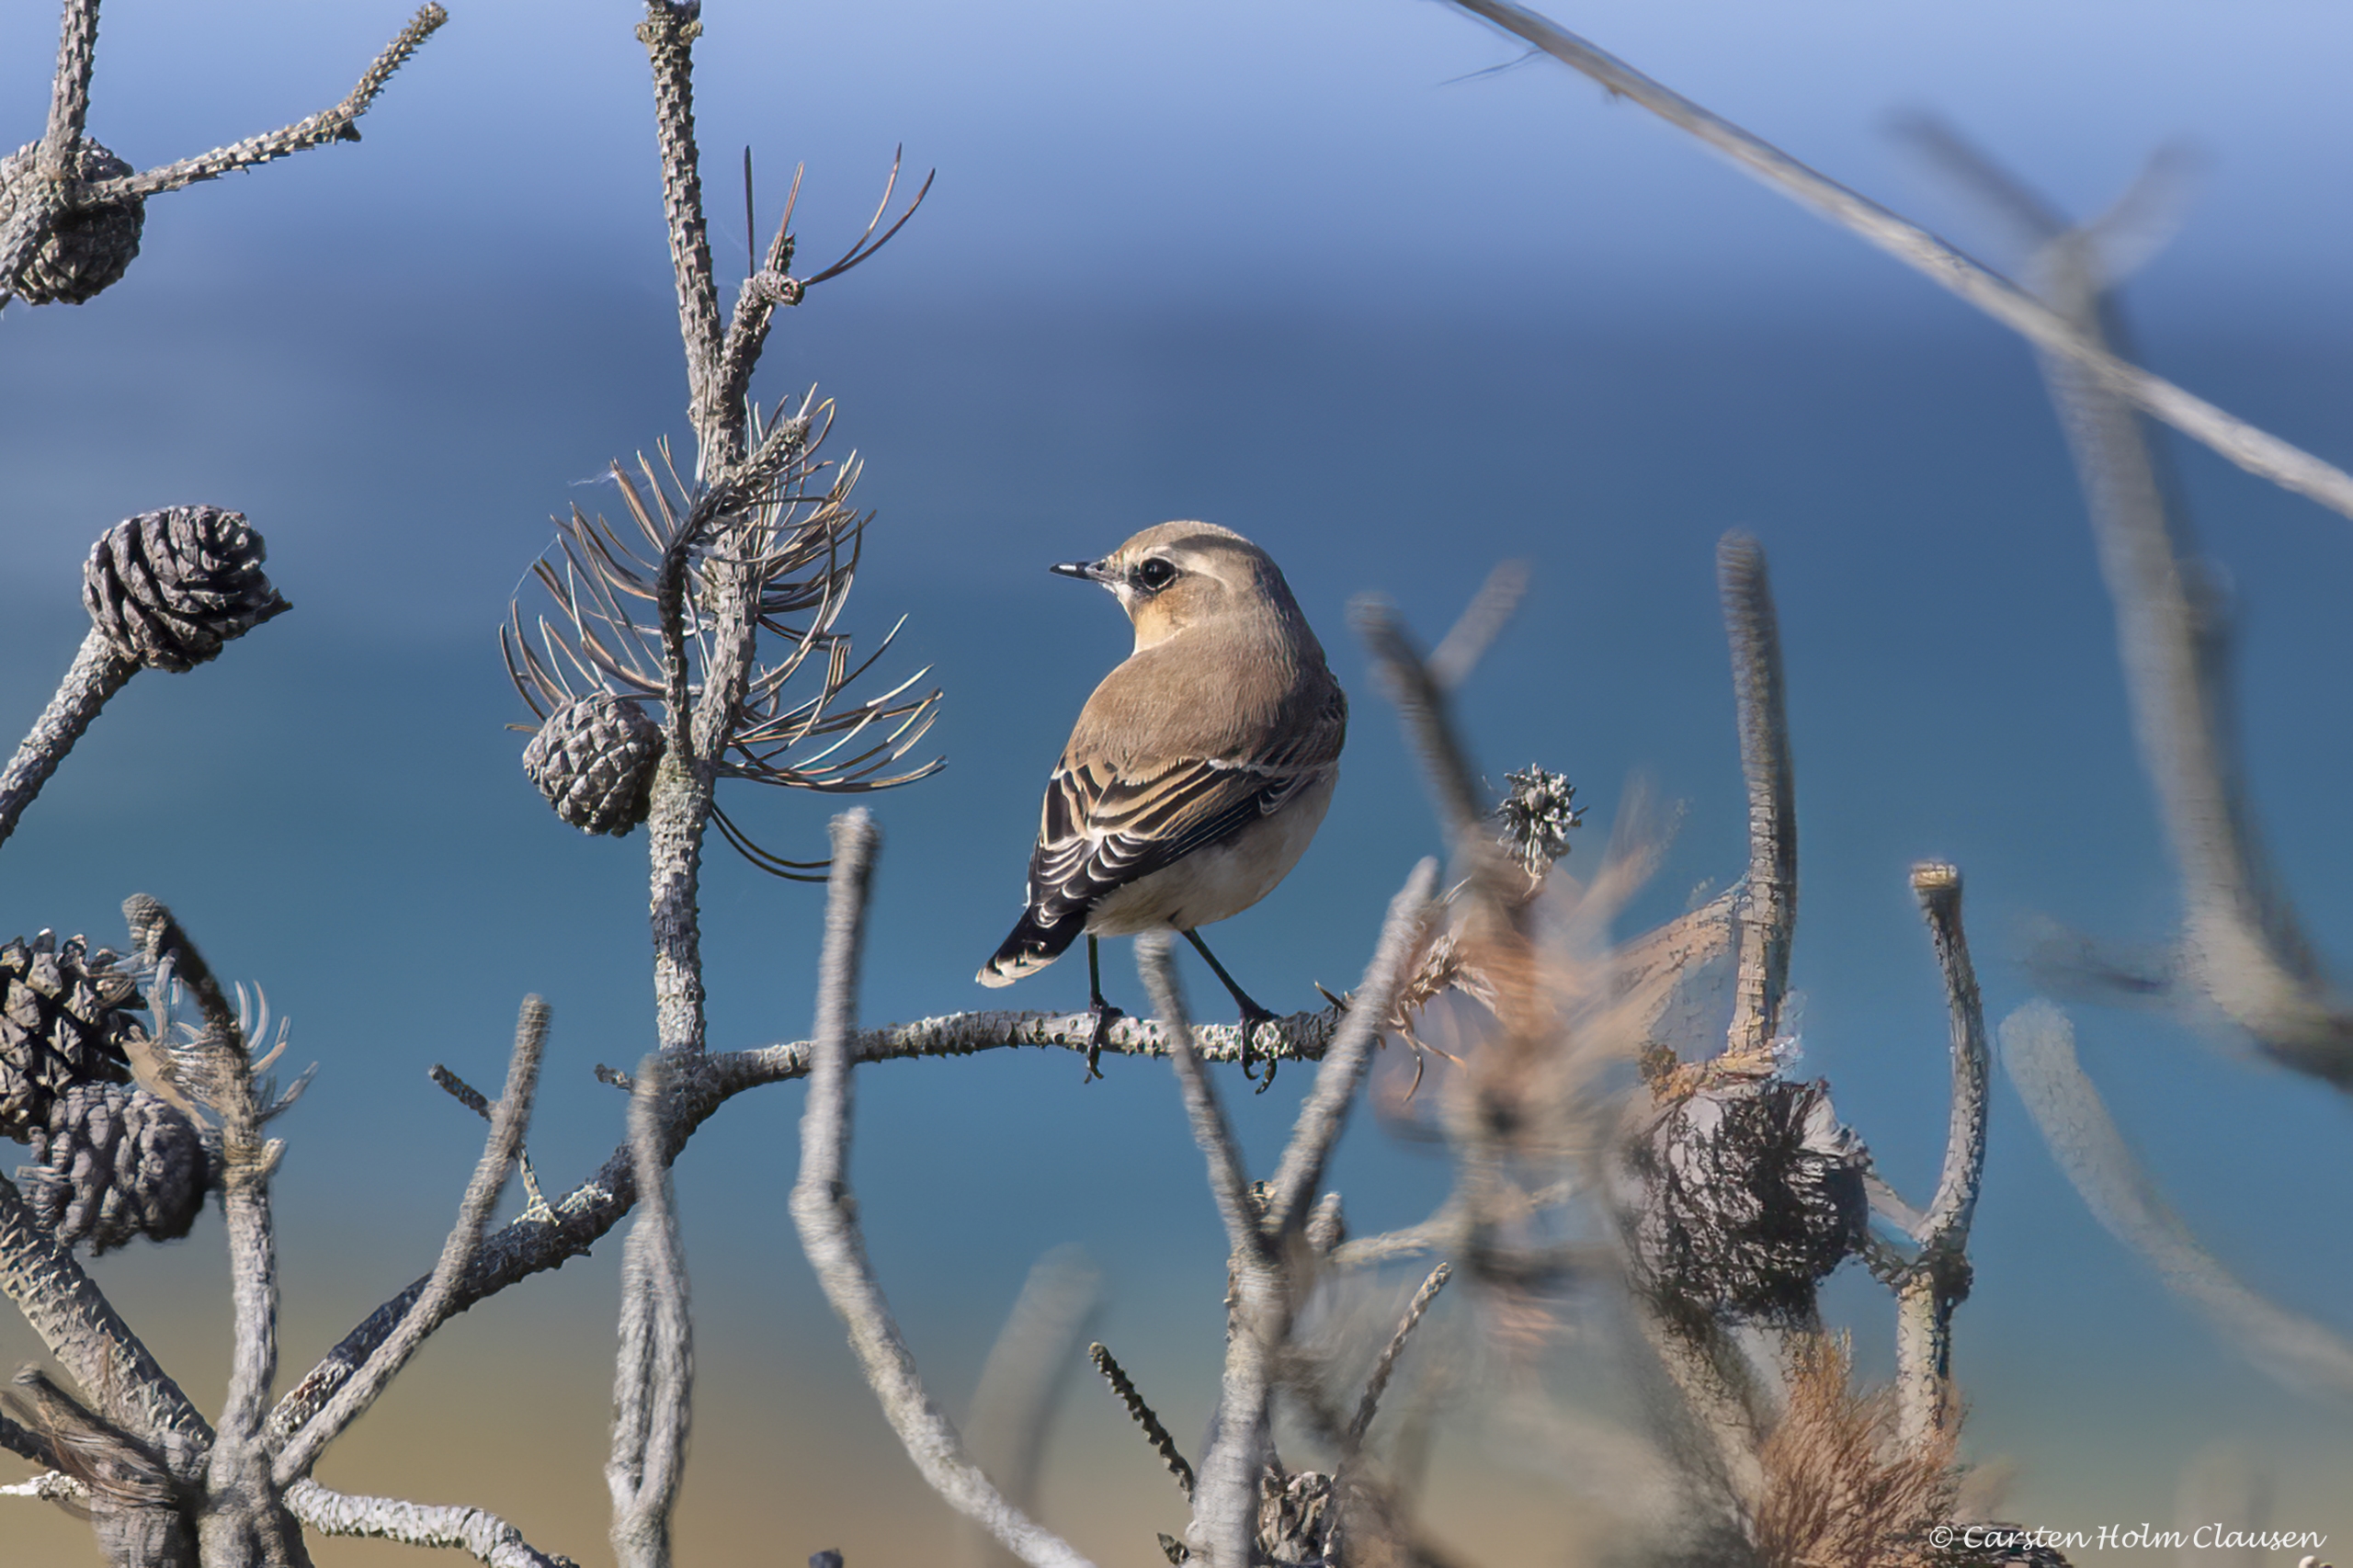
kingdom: Animalia
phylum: Chordata
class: Aves
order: Passeriformes
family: Muscicapidae
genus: Oenanthe
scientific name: Oenanthe oenanthe
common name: Stenpikker
